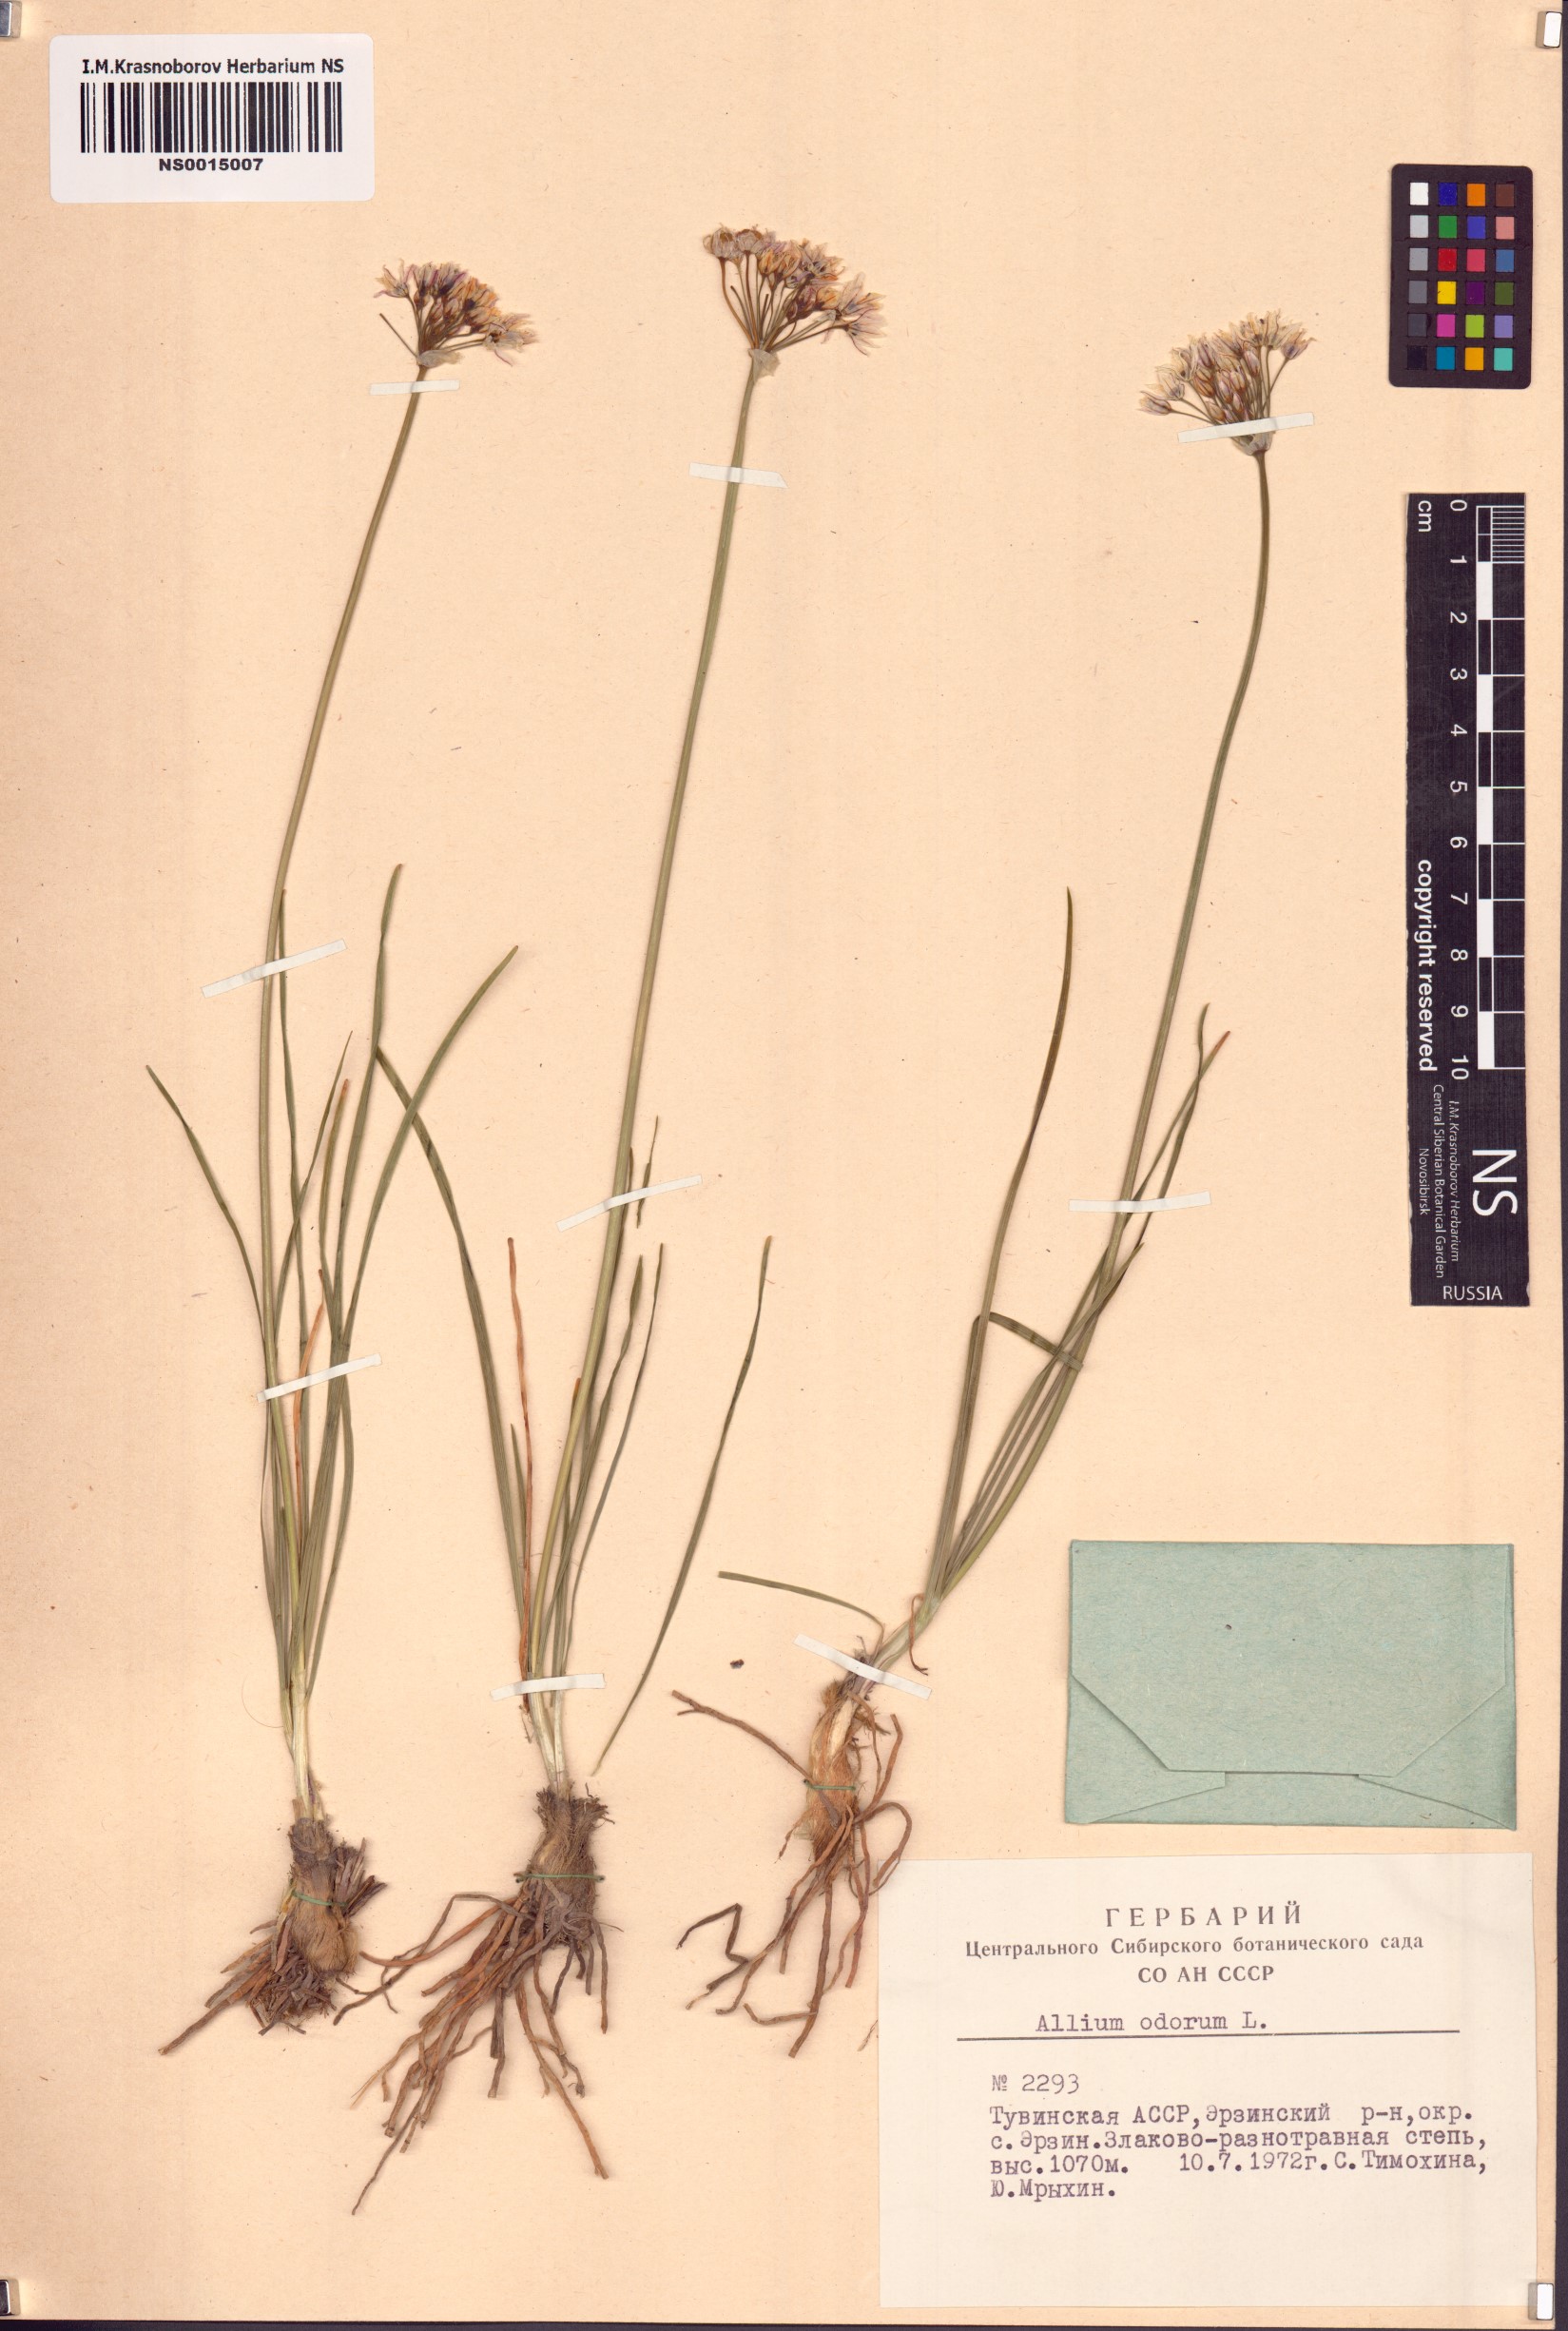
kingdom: Plantae
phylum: Tracheophyta
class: Liliopsida
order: Asparagales
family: Amaryllidaceae
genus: Allium
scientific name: Allium ramosum
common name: Fragrant garlic
